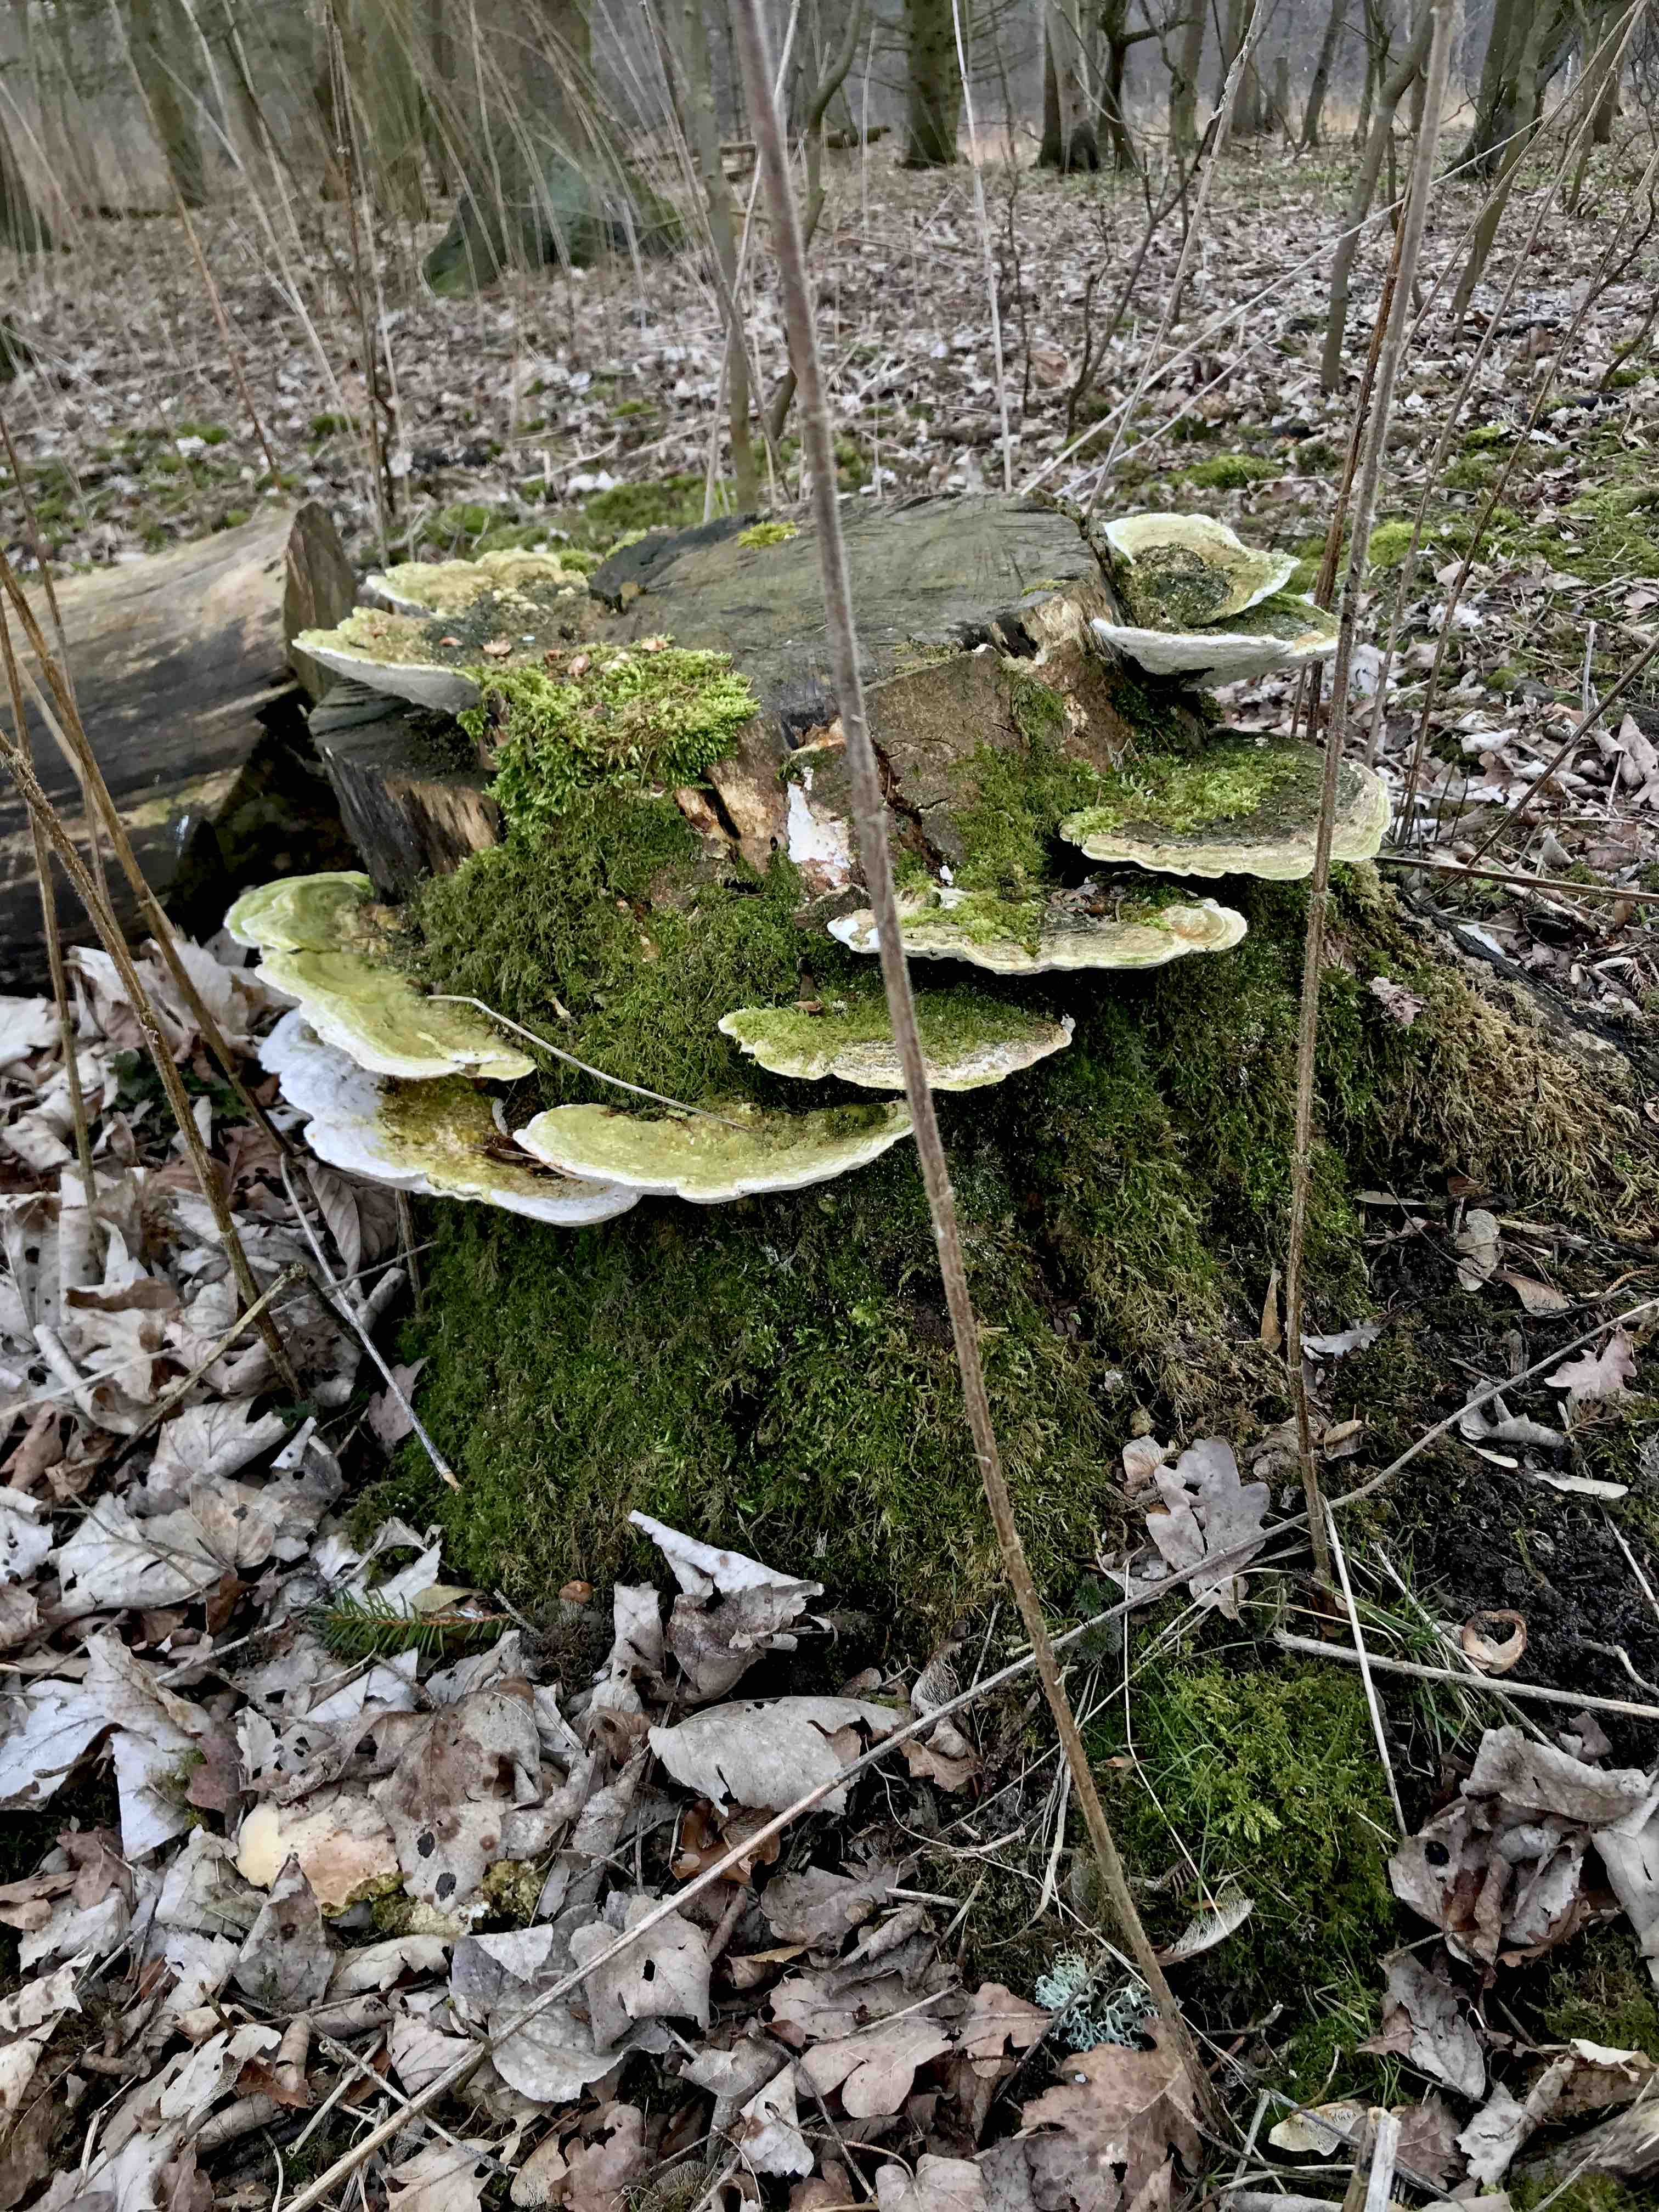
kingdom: Fungi
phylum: Basidiomycota
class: Agaricomycetes
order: Polyporales
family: Polyporaceae
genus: Trametes
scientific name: Trametes gibbosa
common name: puklet læderporesvamp
